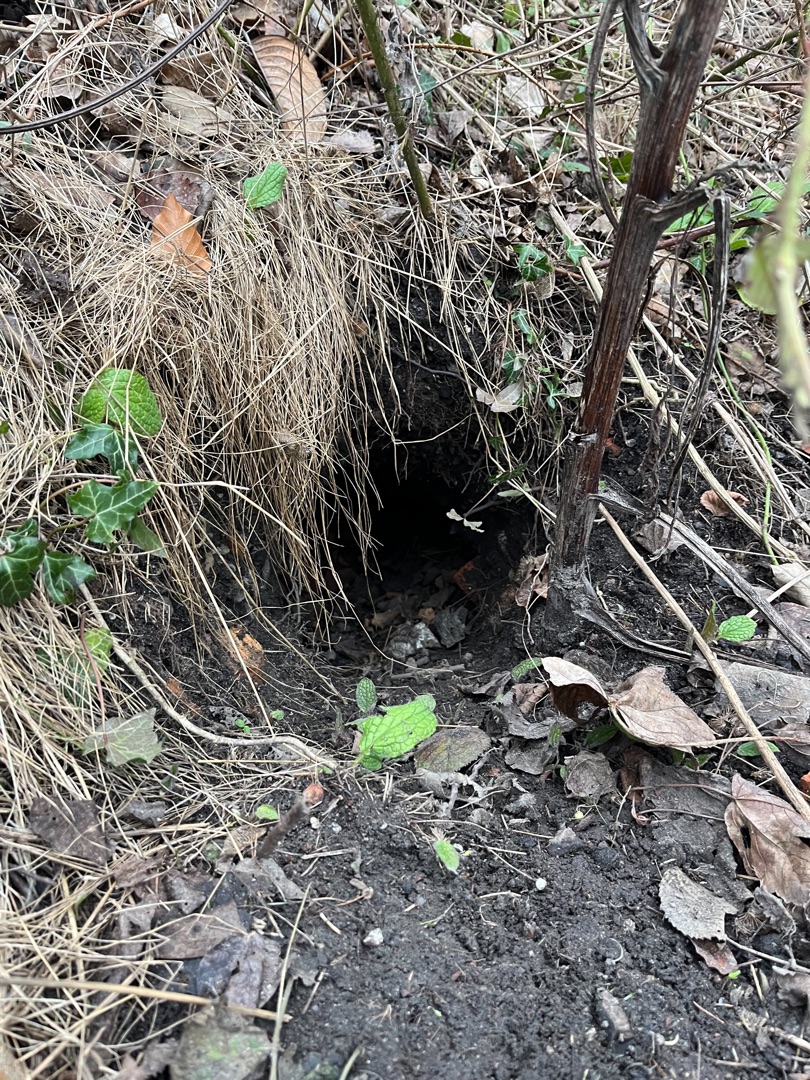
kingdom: Animalia
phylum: Chordata
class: Mammalia
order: Carnivora
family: Canidae
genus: Vulpes
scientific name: Vulpes vulpes
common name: Ræv
